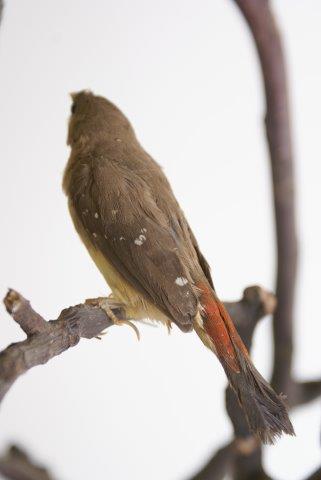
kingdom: Animalia
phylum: Chordata
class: Aves
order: Passeriformes
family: Estrildidae
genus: Amandava
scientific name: Amandava amandava
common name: Tijgervink
